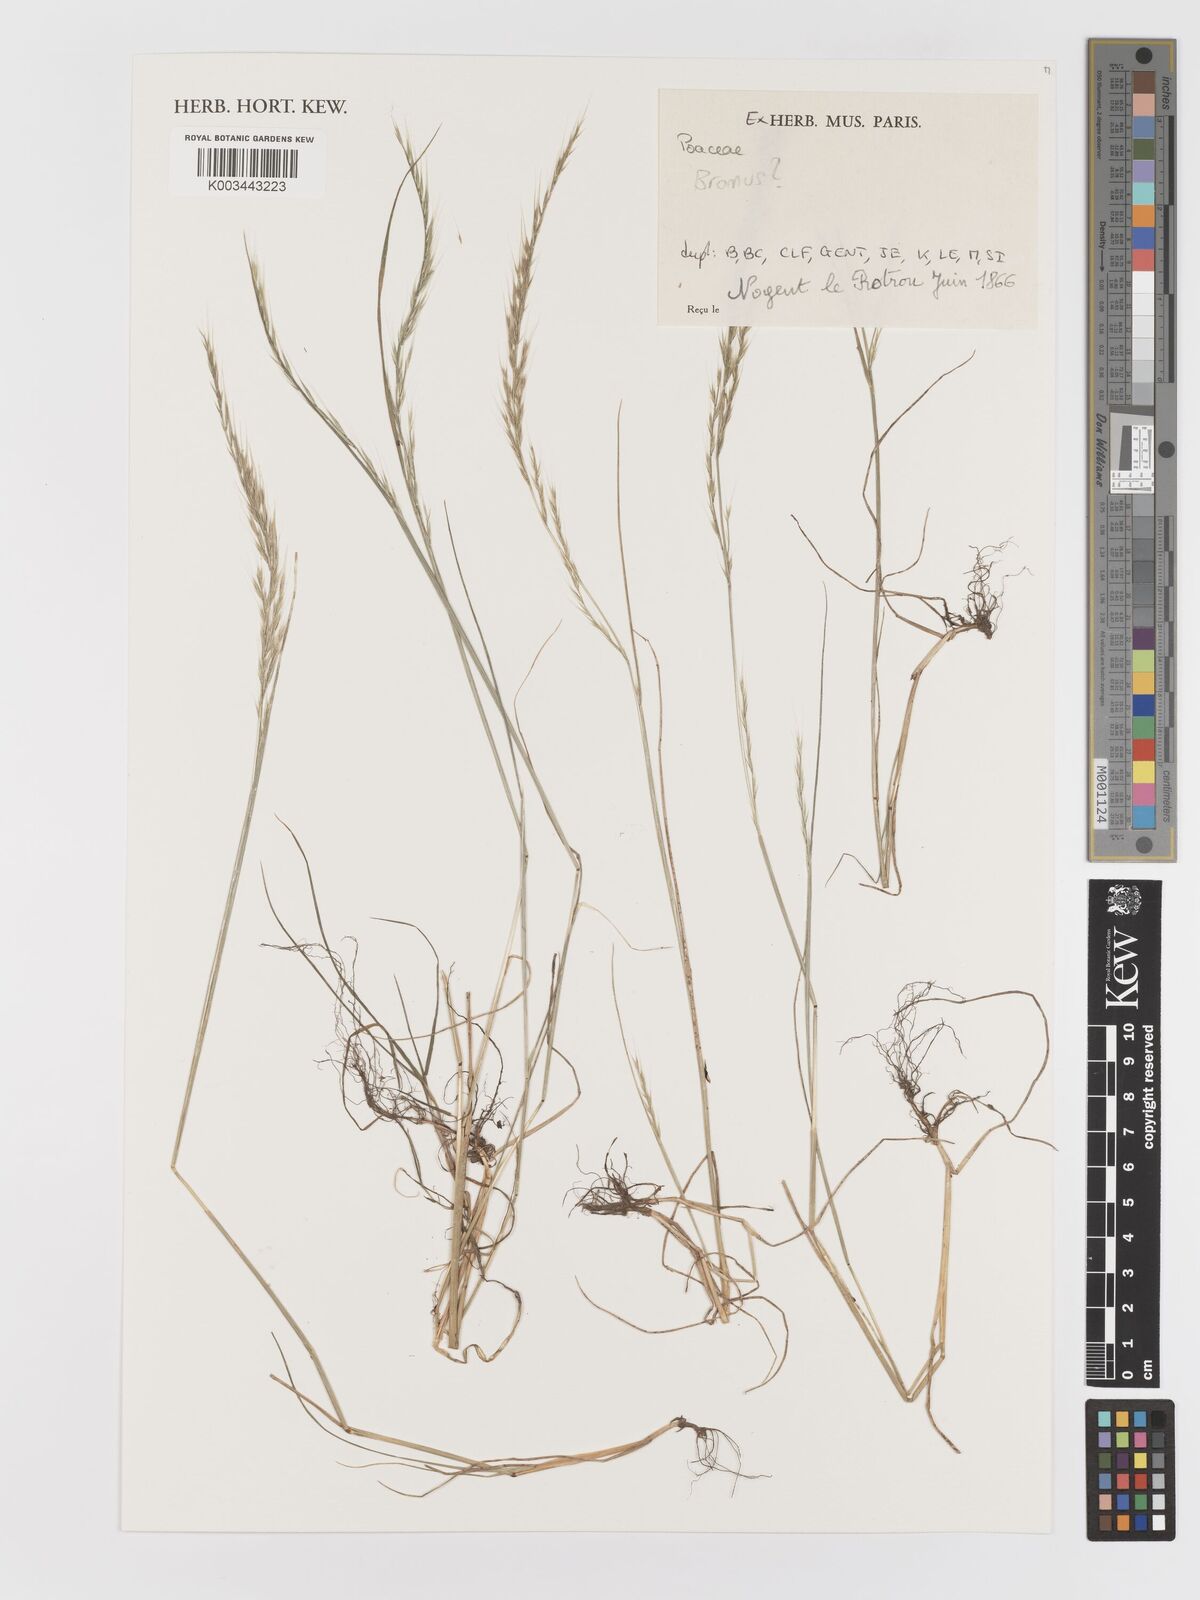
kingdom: Plantae
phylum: Tracheophyta
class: Liliopsida
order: Poales
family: Poaceae
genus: Bromus
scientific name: Bromus
